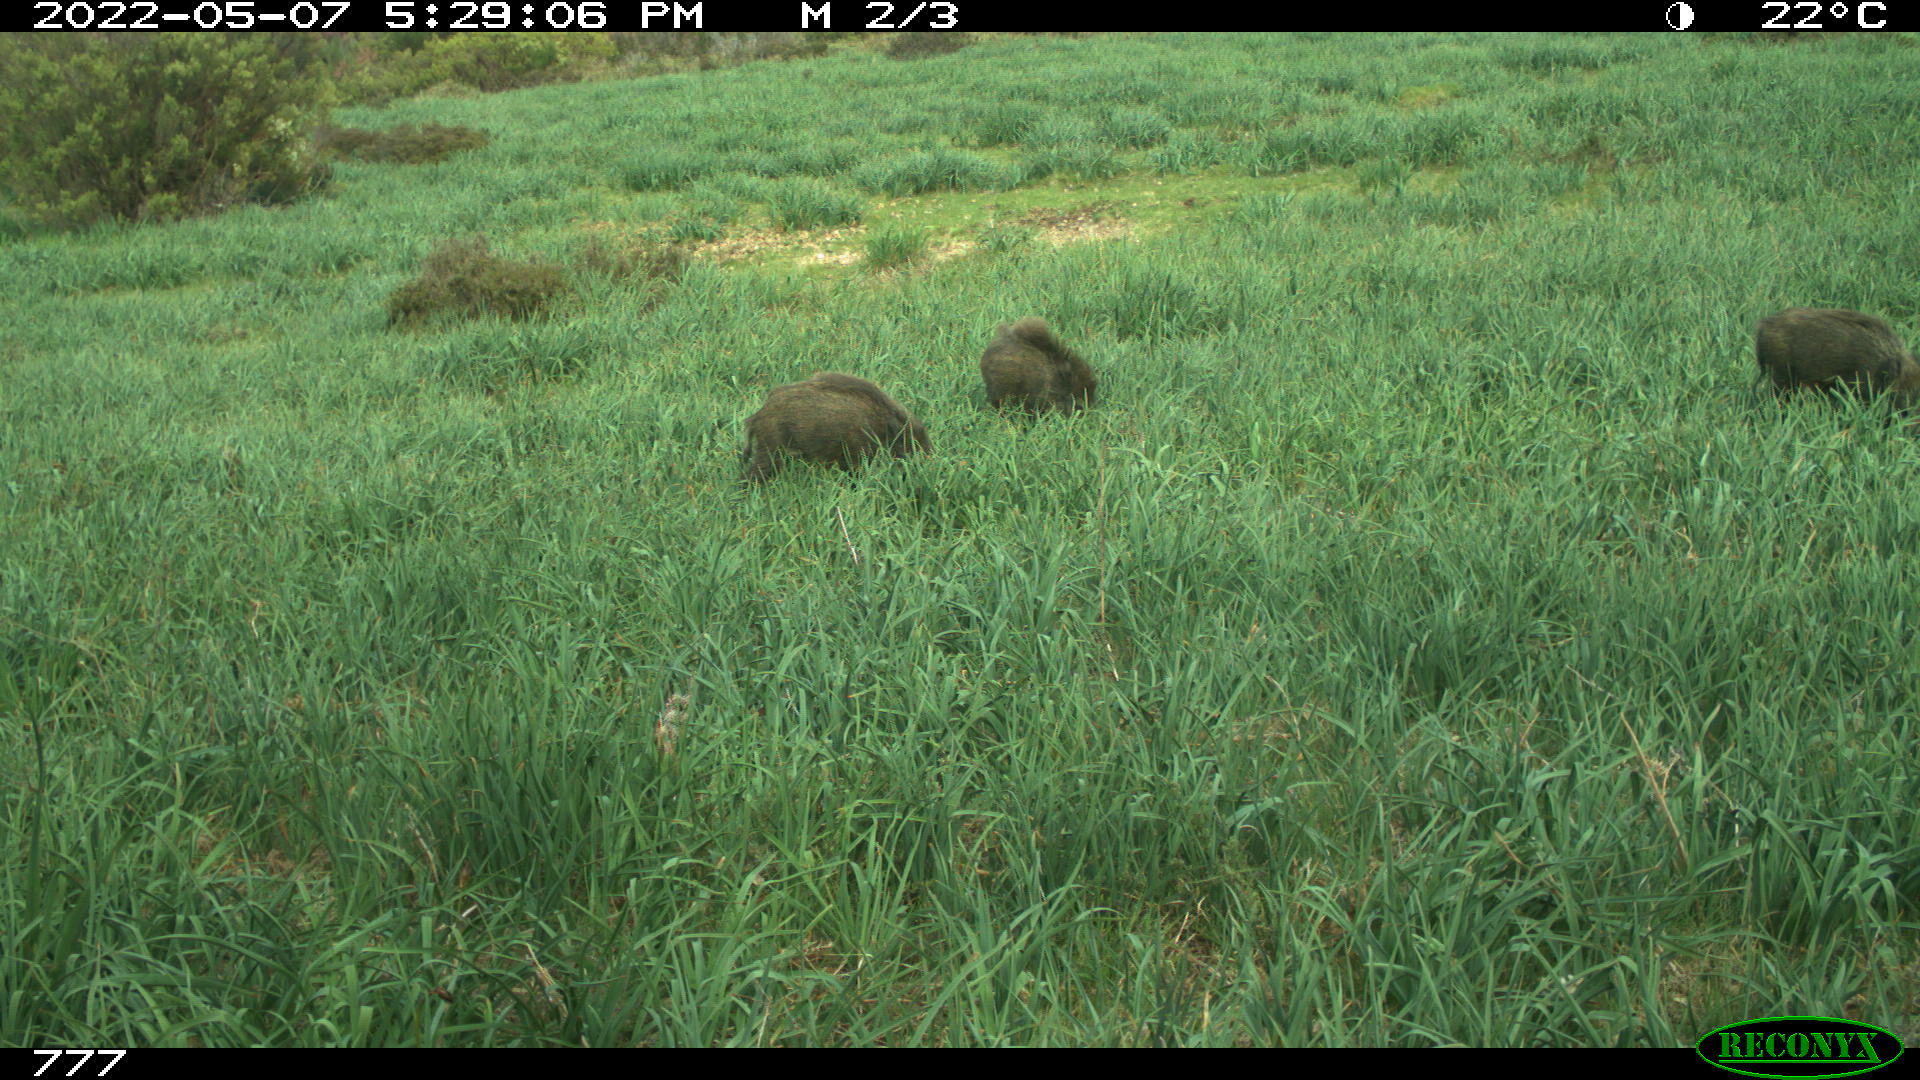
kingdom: Animalia
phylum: Chordata
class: Mammalia
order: Artiodactyla
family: Suidae
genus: Sus
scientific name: Sus scrofa
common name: Wild boar
